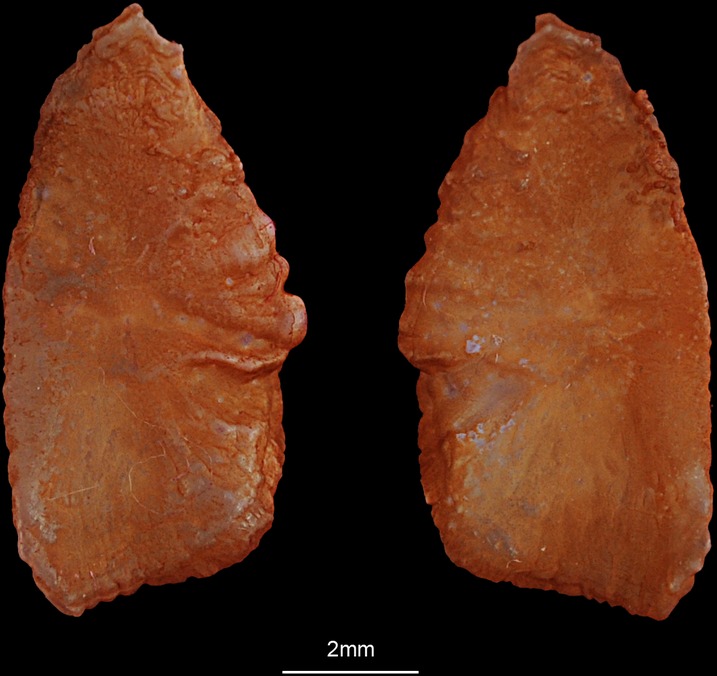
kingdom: Animalia
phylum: Chordata
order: Perciformes
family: Sparidae
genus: Rhabdosargus
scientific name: Rhabdosargus sarba
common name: Goldlined seabream
